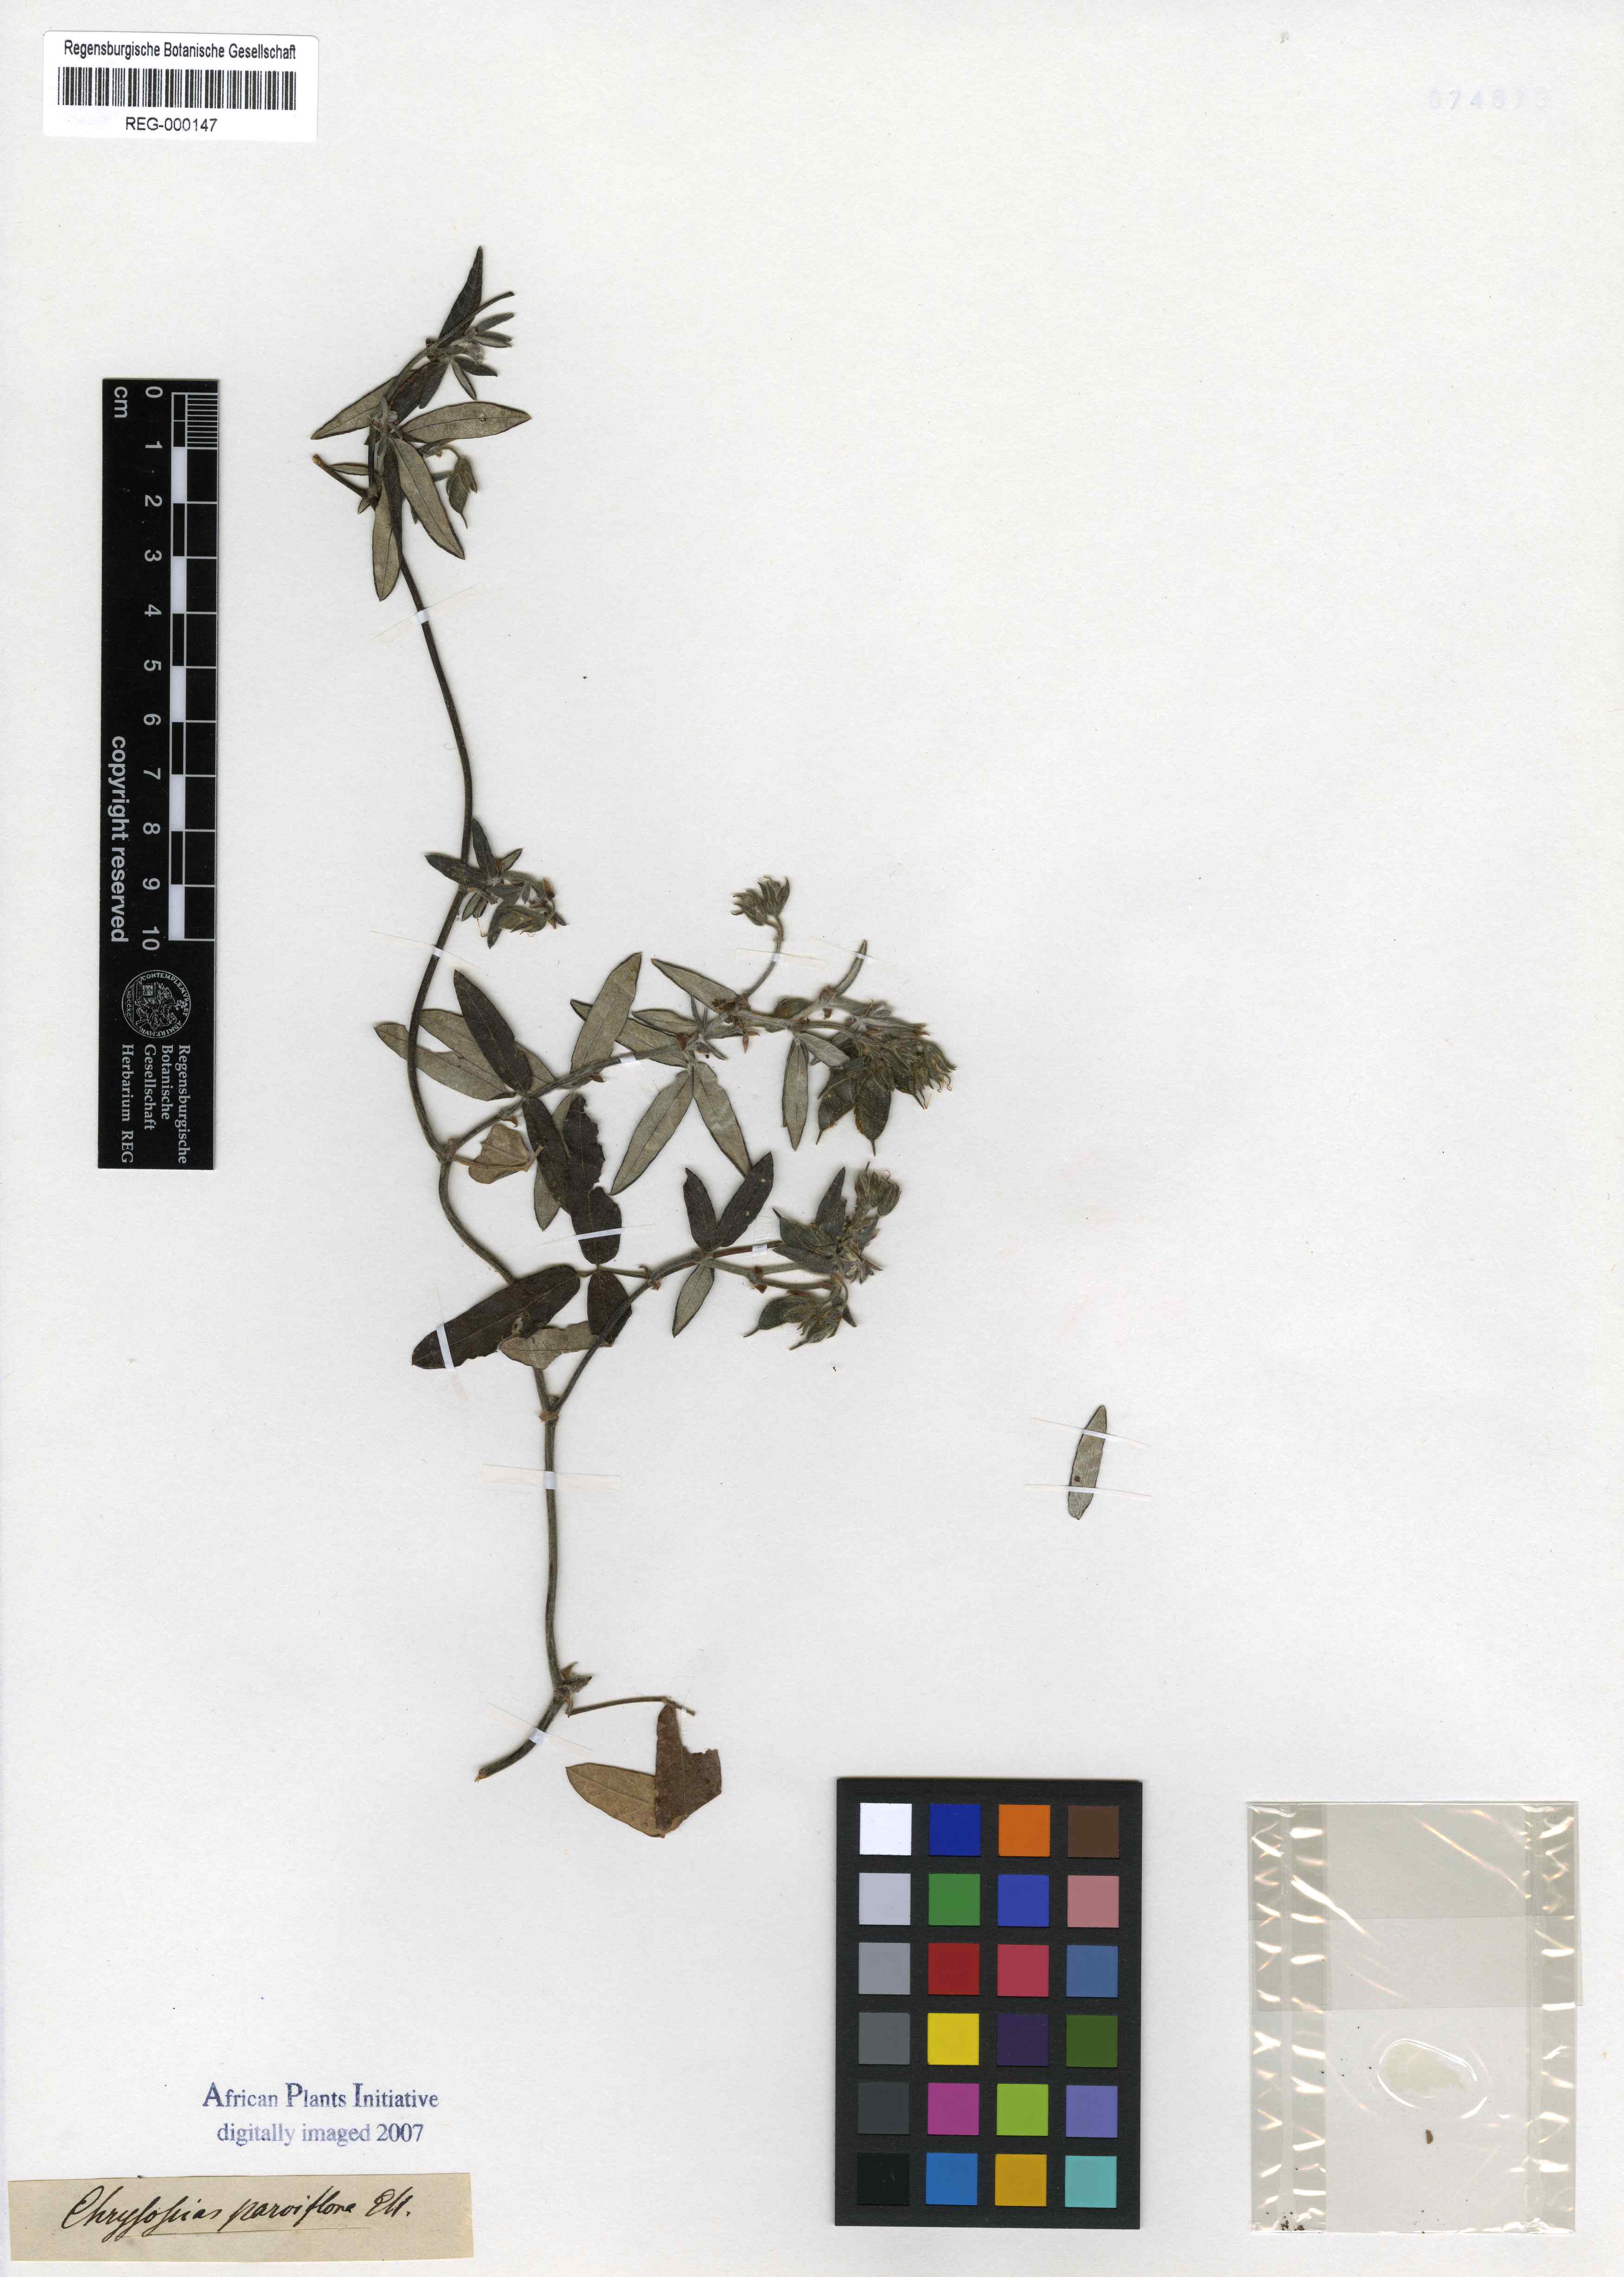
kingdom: Plantae
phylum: Tracheophyta
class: Magnoliopsida
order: Fabales
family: Fabaceae
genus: Rhynchosia
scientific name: Rhynchosia microscias
